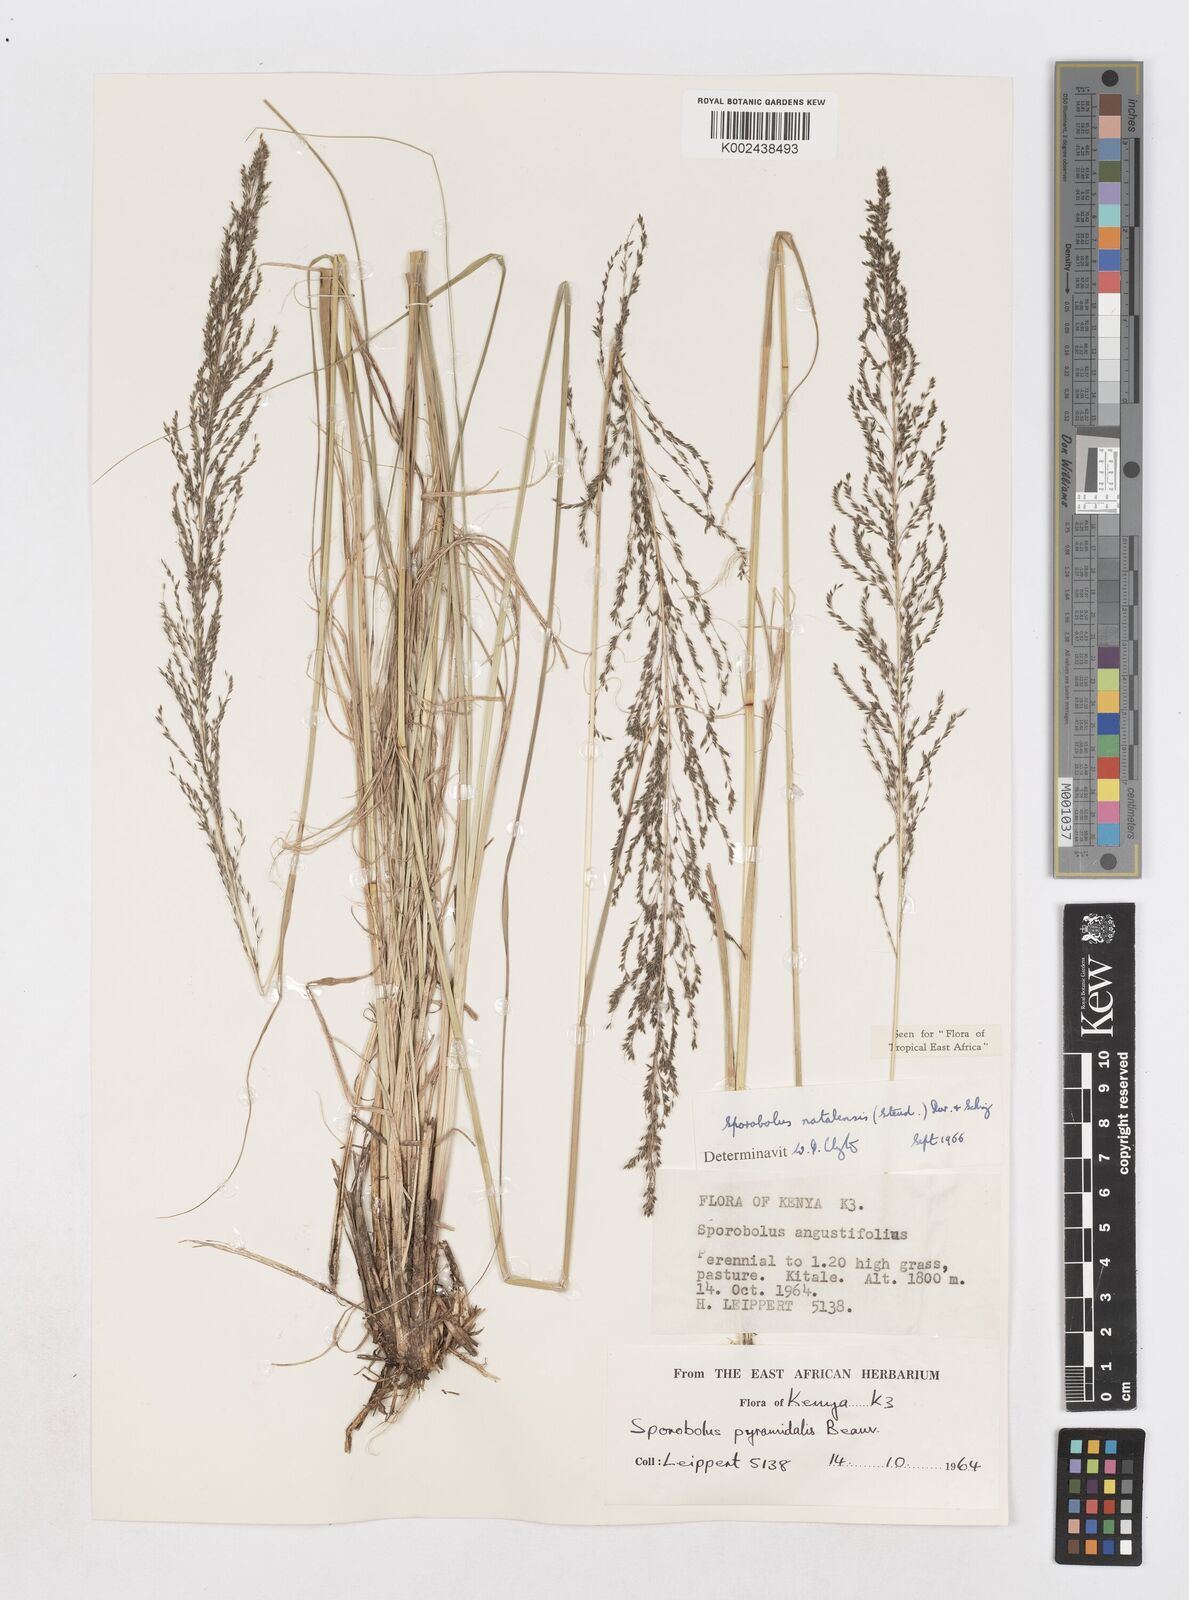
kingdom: Plantae
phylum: Tracheophyta
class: Liliopsida
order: Poales
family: Poaceae
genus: Sporobolus
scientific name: Sporobolus natalensis
